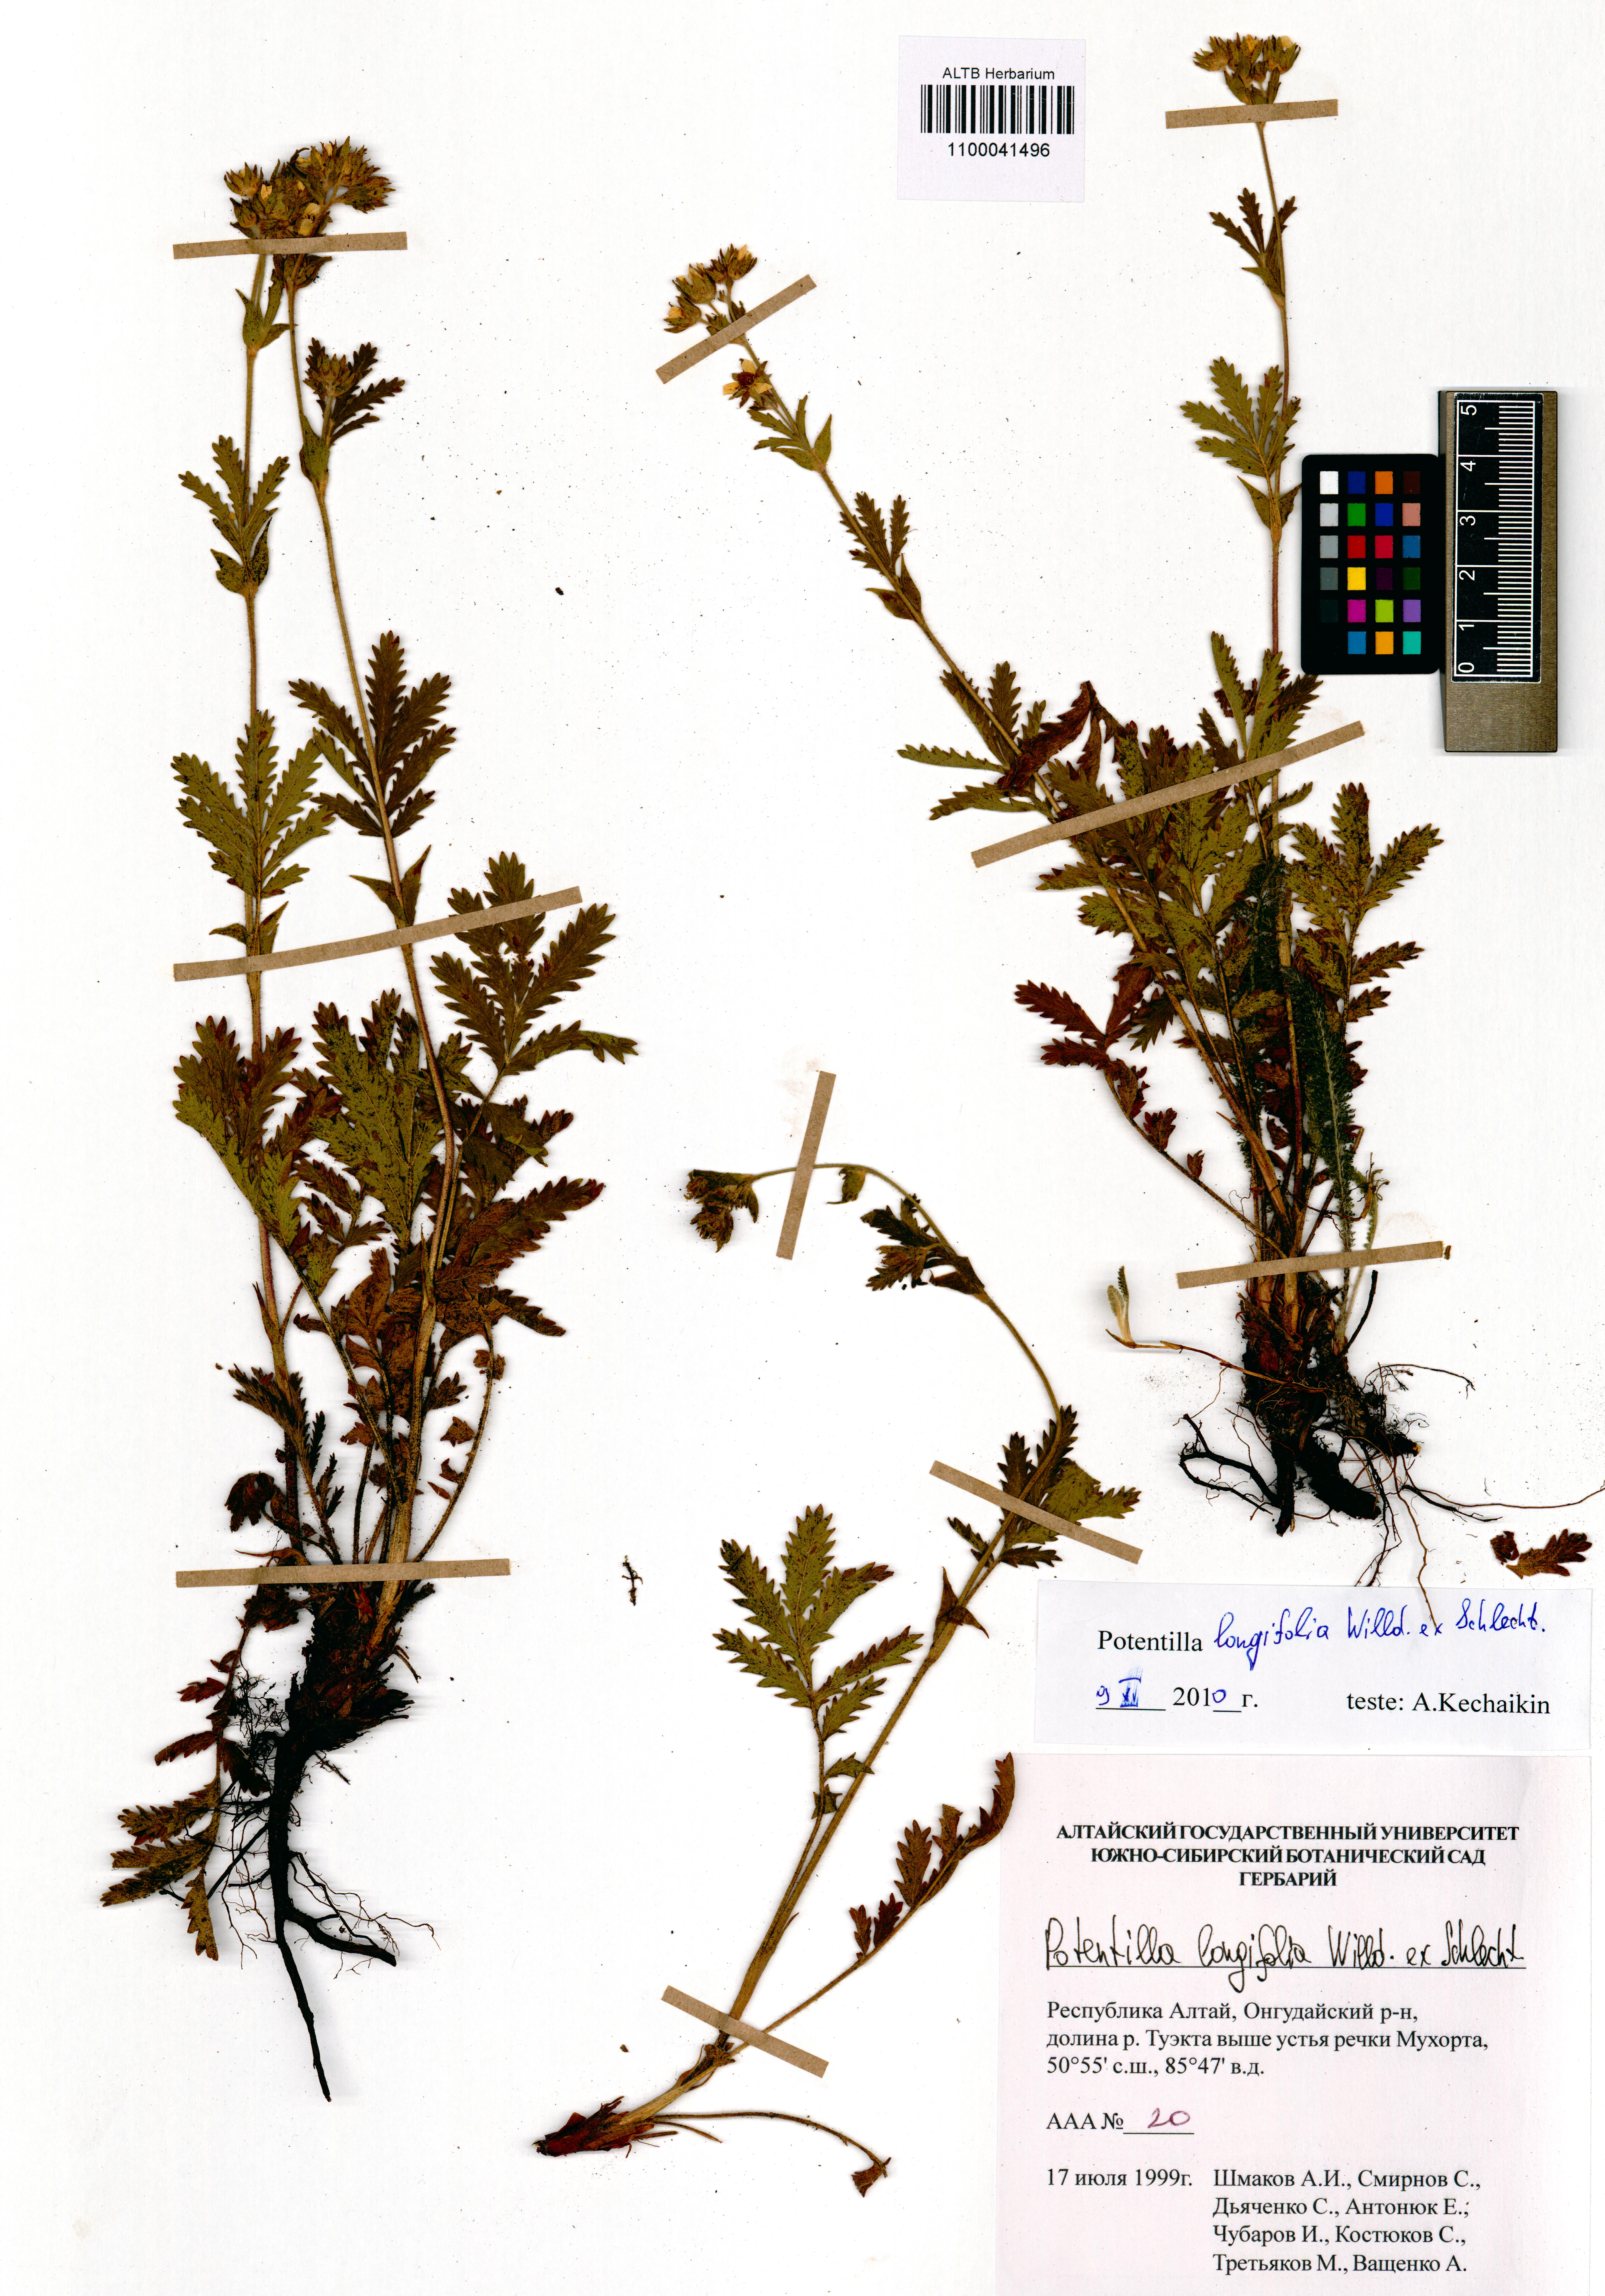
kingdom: Plantae
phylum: Tracheophyta
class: Magnoliopsida
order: Rosales
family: Rosaceae
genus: Potentilla
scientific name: Potentilla longifolia
